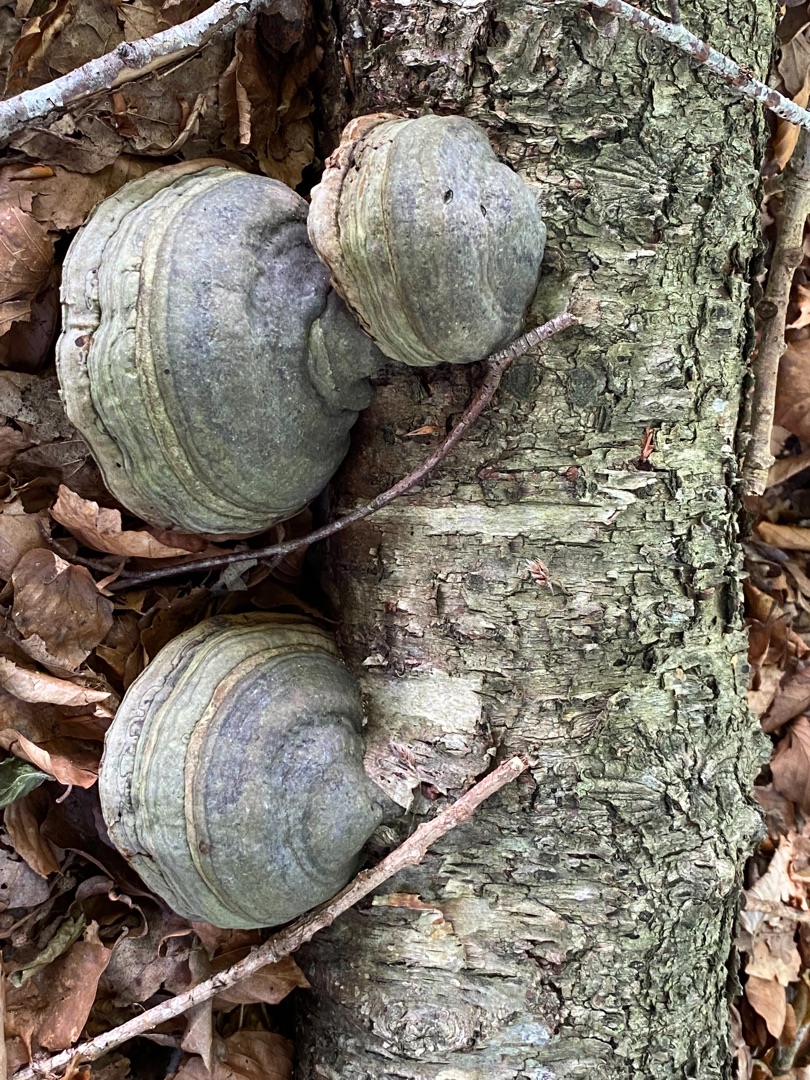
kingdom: Fungi
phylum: Basidiomycota
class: Agaricomycetes
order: Polyporales
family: Polyporaceae
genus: Fomes
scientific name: Fomes fomentarius
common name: Tøndersvamp
